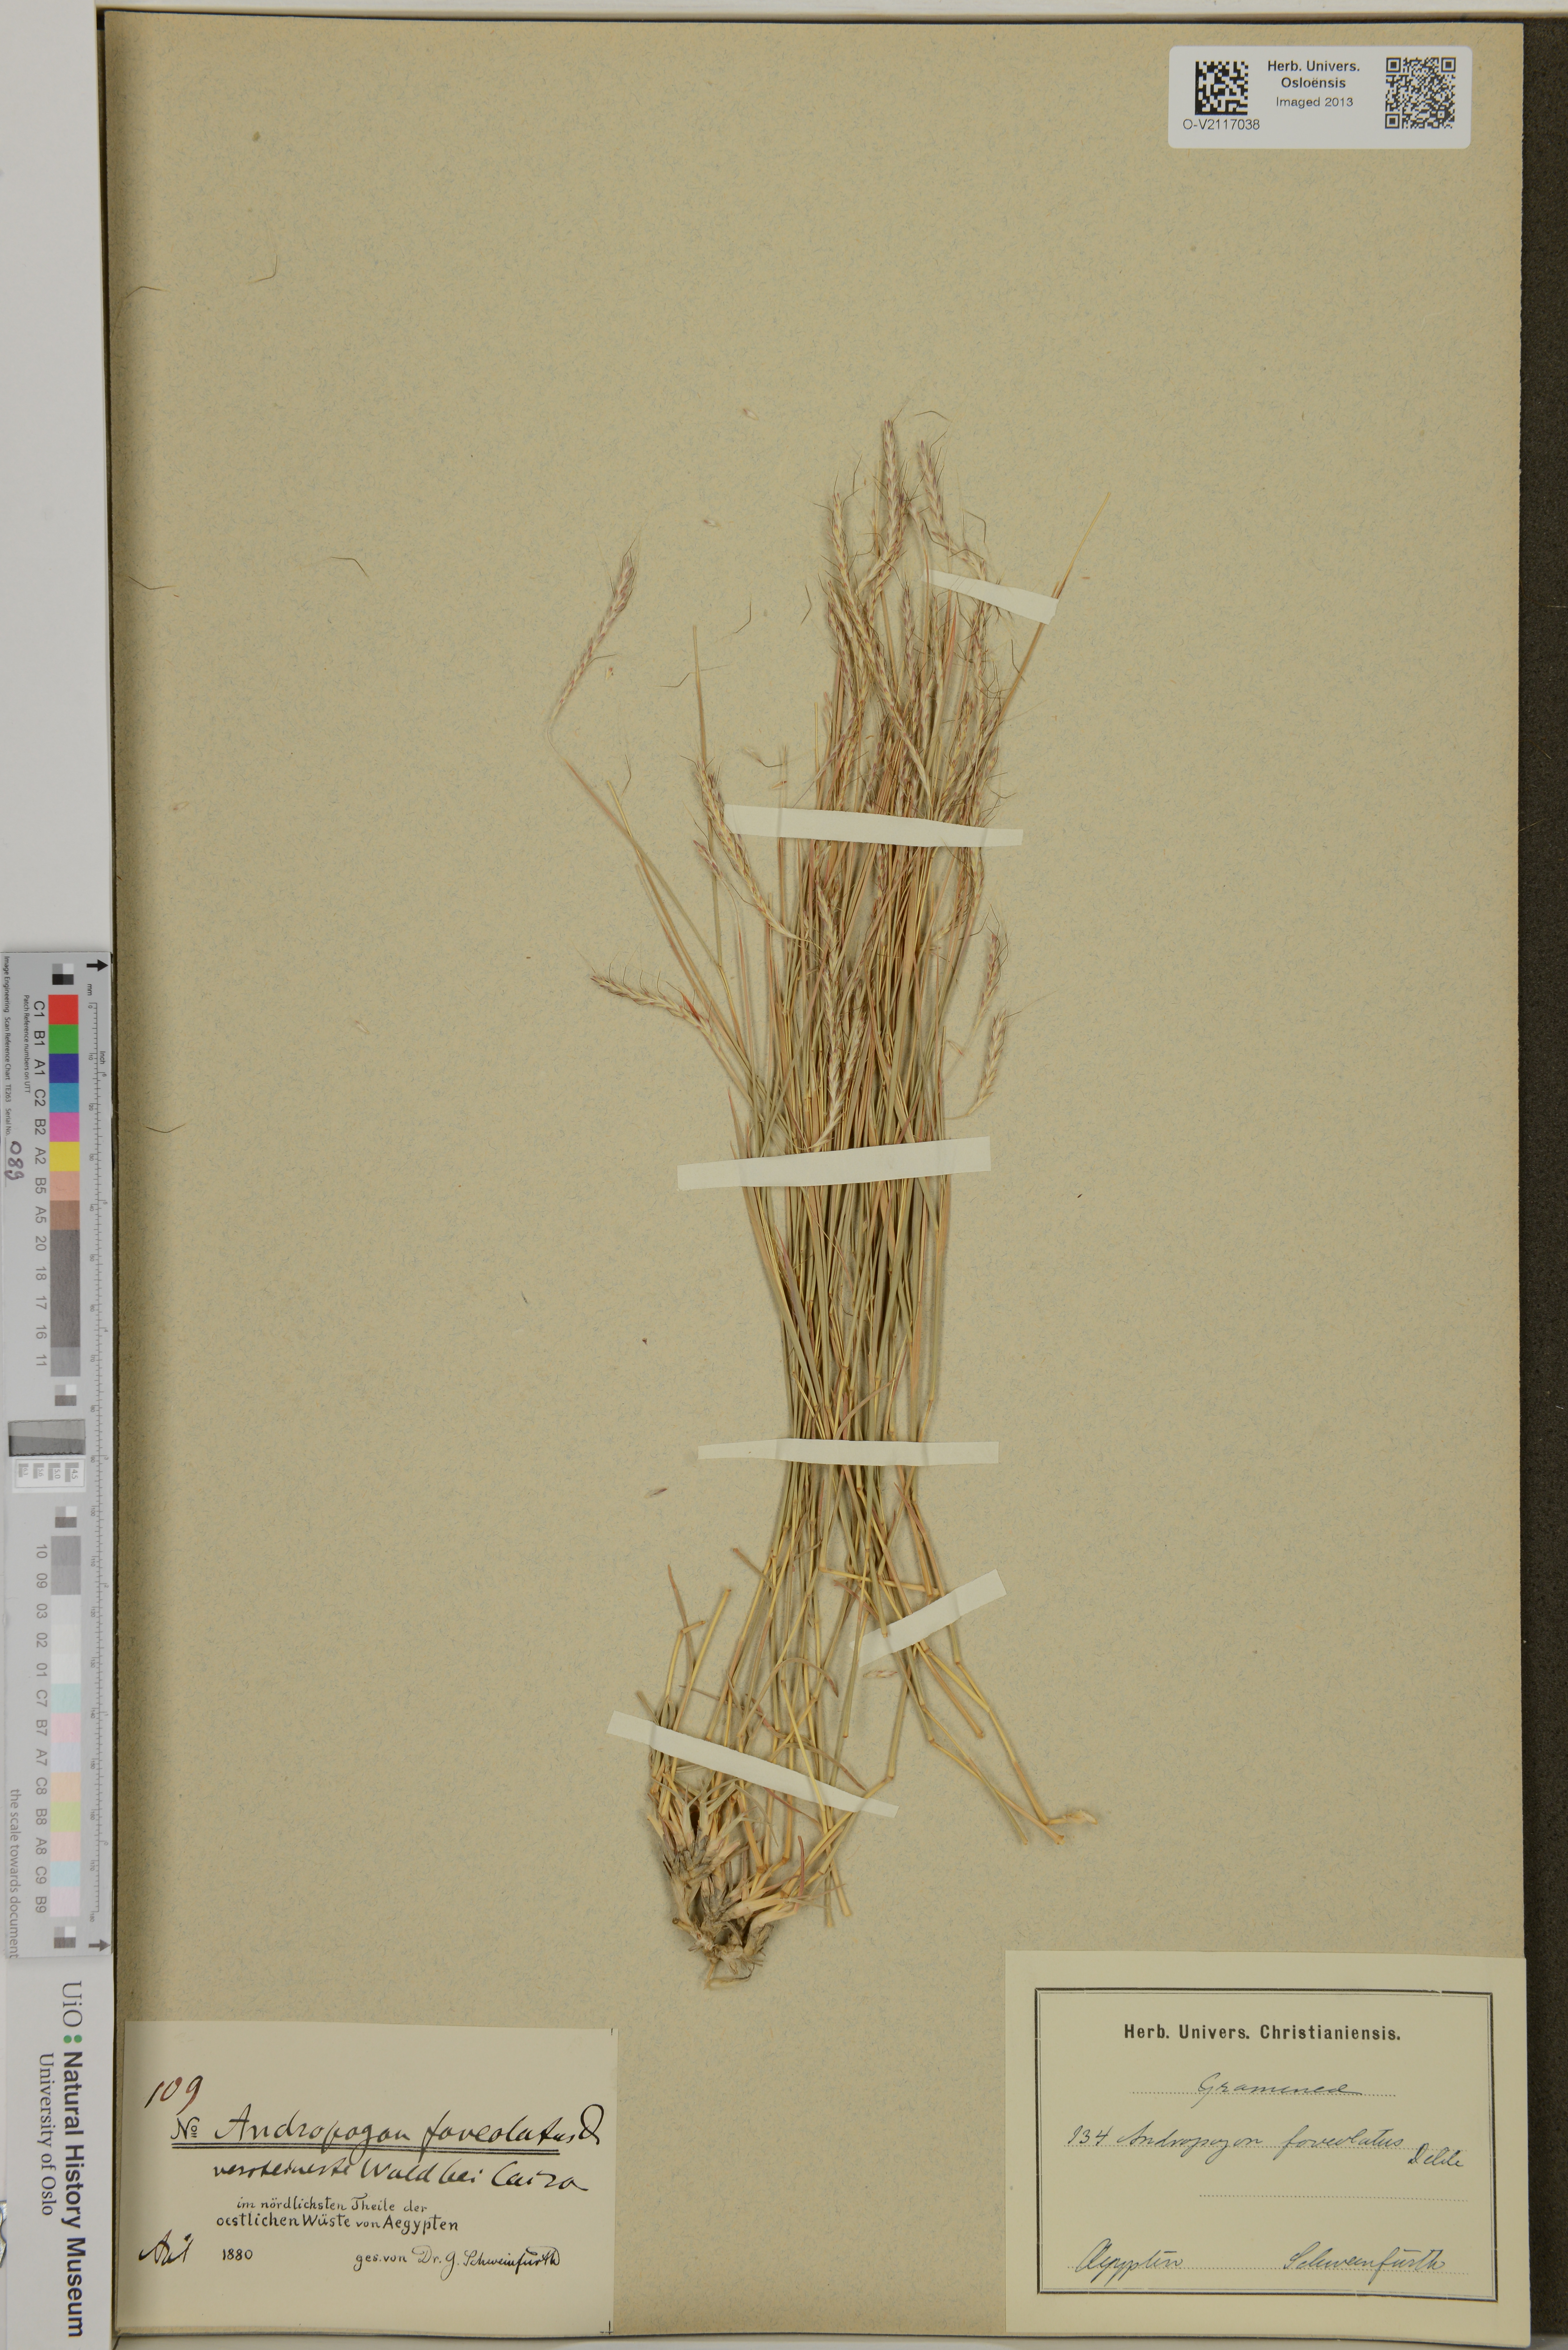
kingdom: Plantae
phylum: Tracheophyta
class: Liliopsida
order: Poales
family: Poaceae
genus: Dichanthium
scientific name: Dichanthium foveolatum
